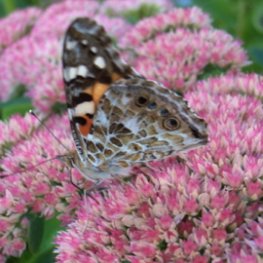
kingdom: Animalia
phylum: Arthropoda
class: Insecta
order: Lepidoptera
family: Nymphalidae
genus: Vanessa
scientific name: Vanessa cardui
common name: Painted Lady
